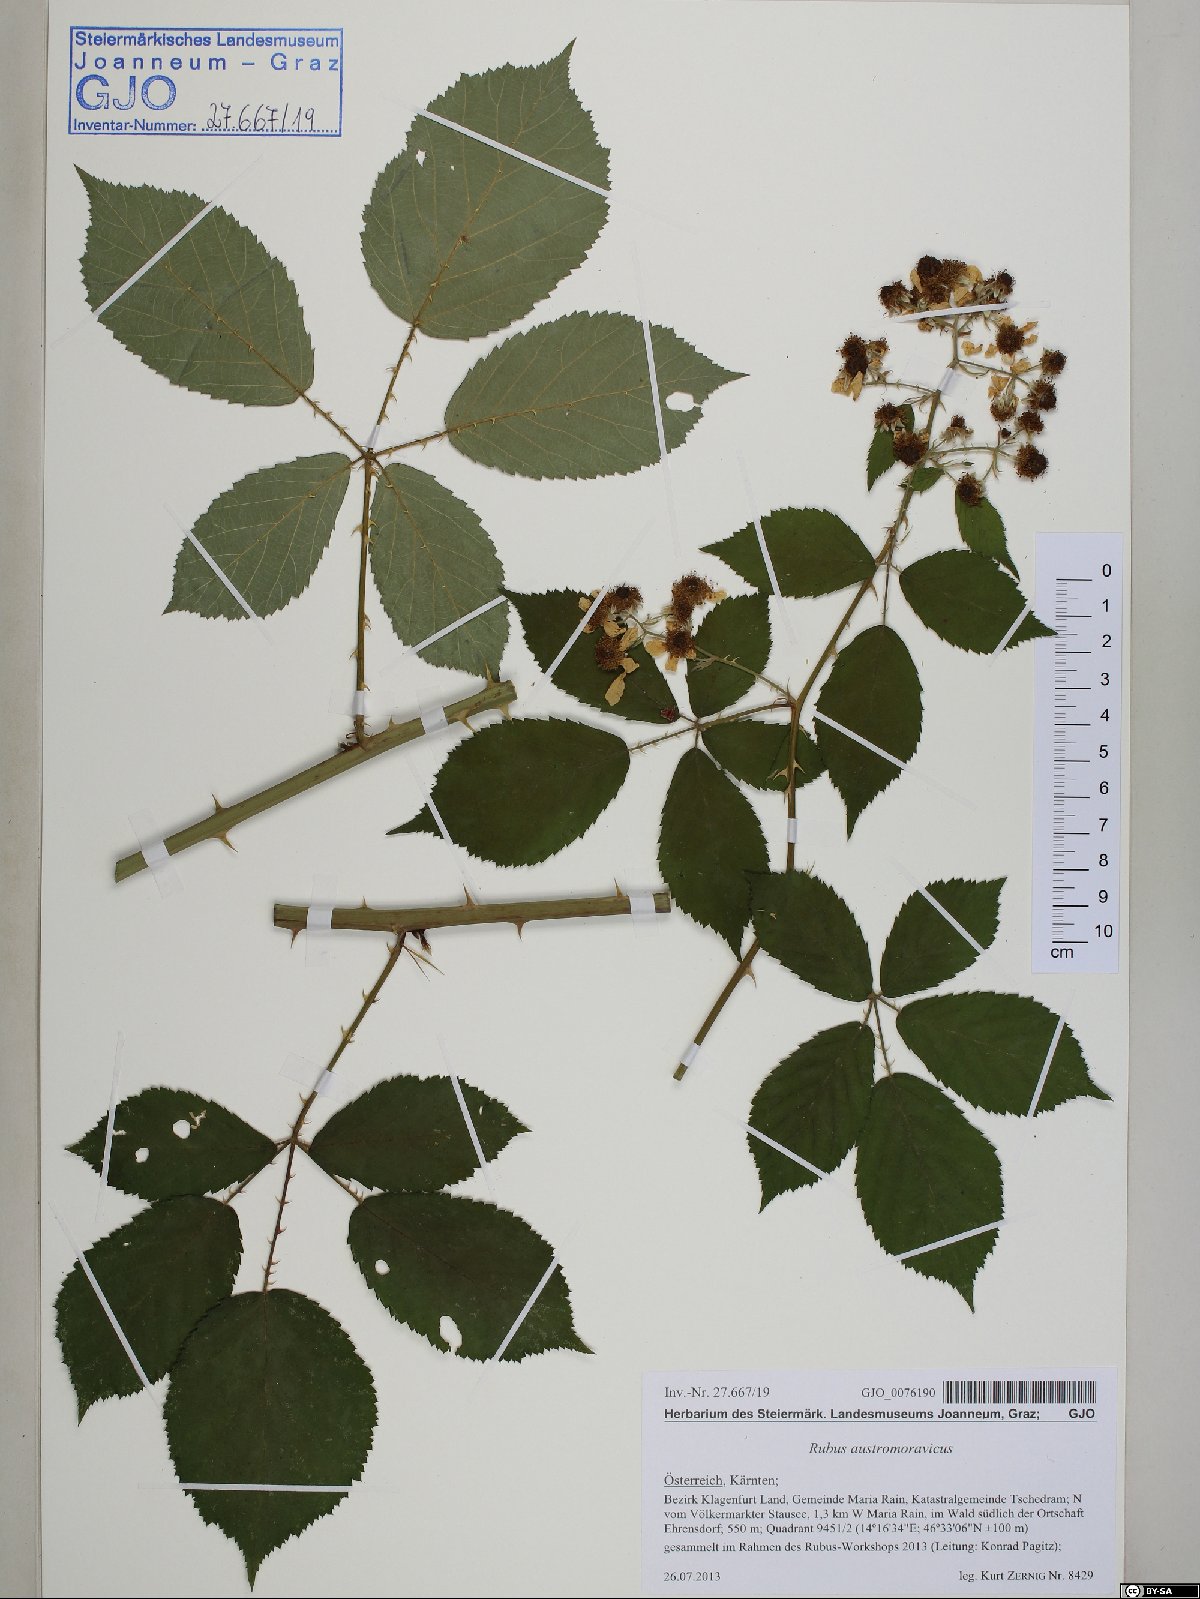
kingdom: Plantae
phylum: Tracheophyta
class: Magnoliopsida
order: Rosales
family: Rosaceae
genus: Rubus
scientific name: Rubus austromoravicus
